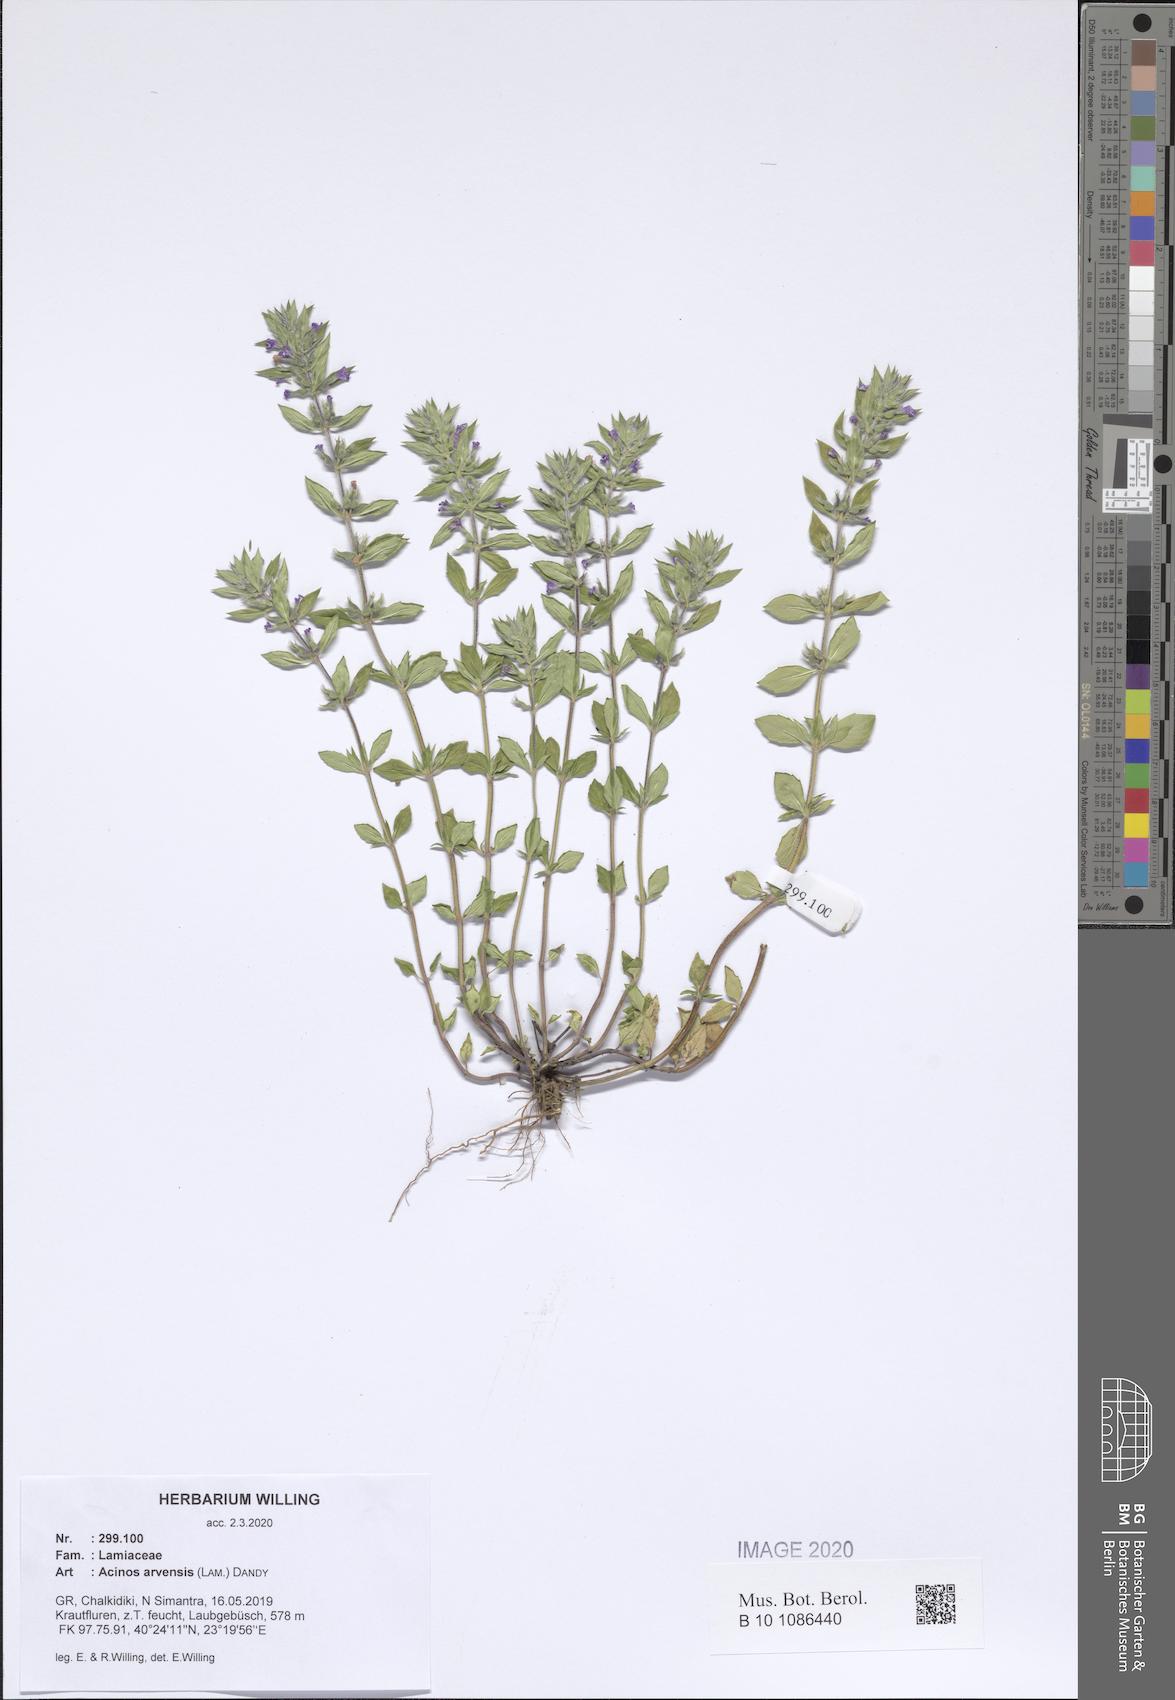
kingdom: Plantae
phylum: Tracheophyta
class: Magnoliopsida
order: Lamiales
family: Lamiaceae
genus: Clinopodium
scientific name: Clinopodium acinos
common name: Basil thyme
